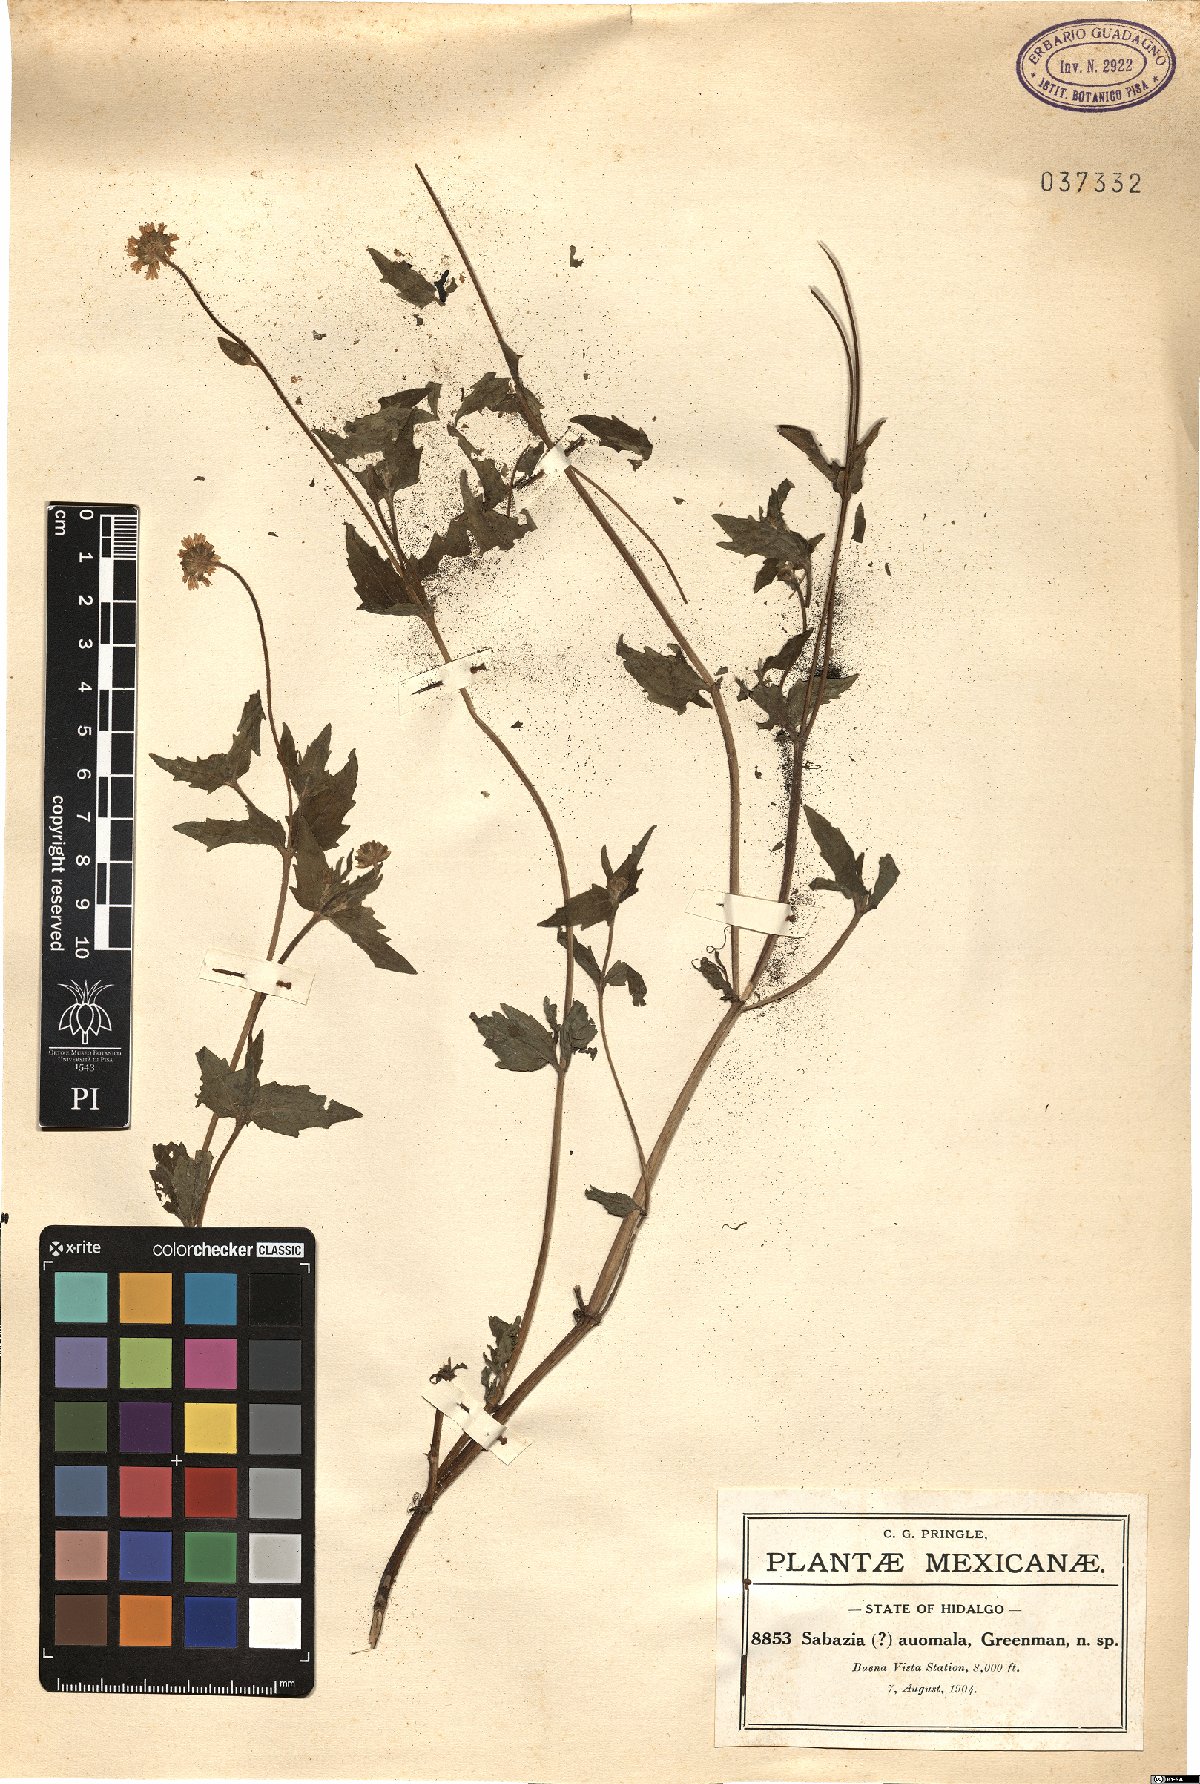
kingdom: Plantae
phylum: Tracheophyta
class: Magnoliopsida
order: Asterales
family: Asteraceae
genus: Eclipta
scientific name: Eclipta alba
